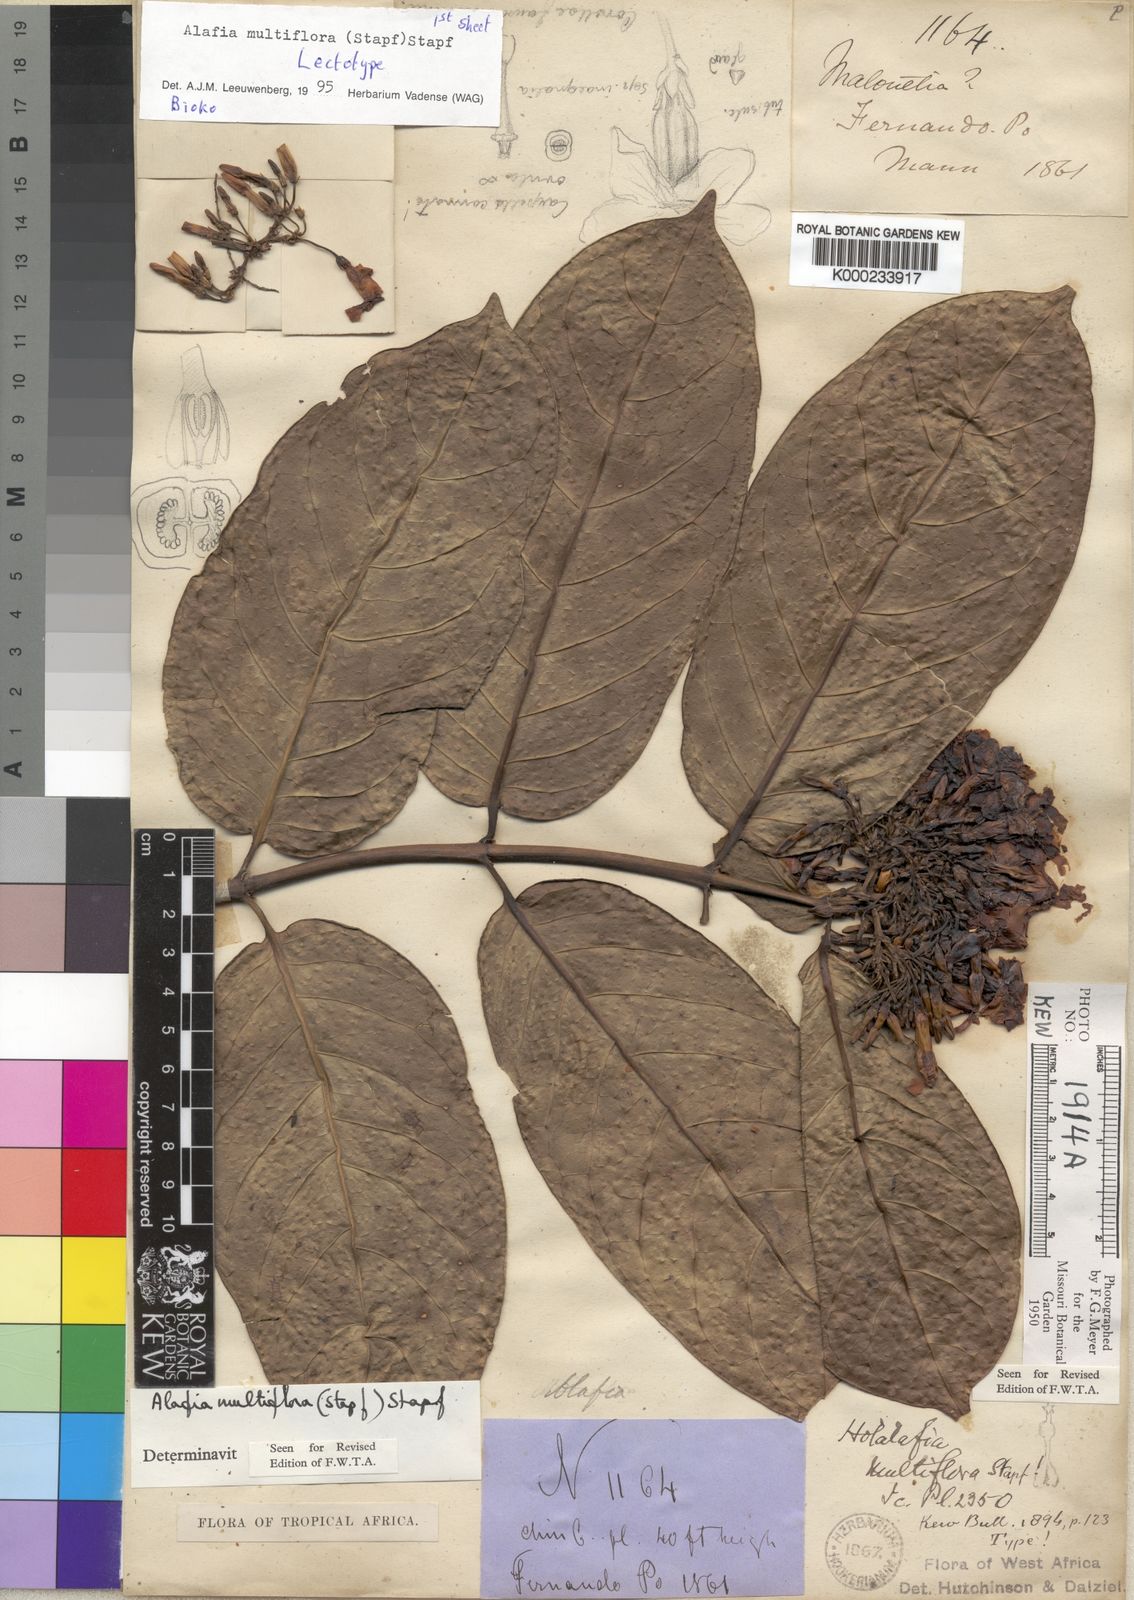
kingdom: Plantae
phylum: Tracheophyta
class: Magnoliopsida
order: Gentianales
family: Apocynaceae
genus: Alafia
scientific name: Alafia multiflora
